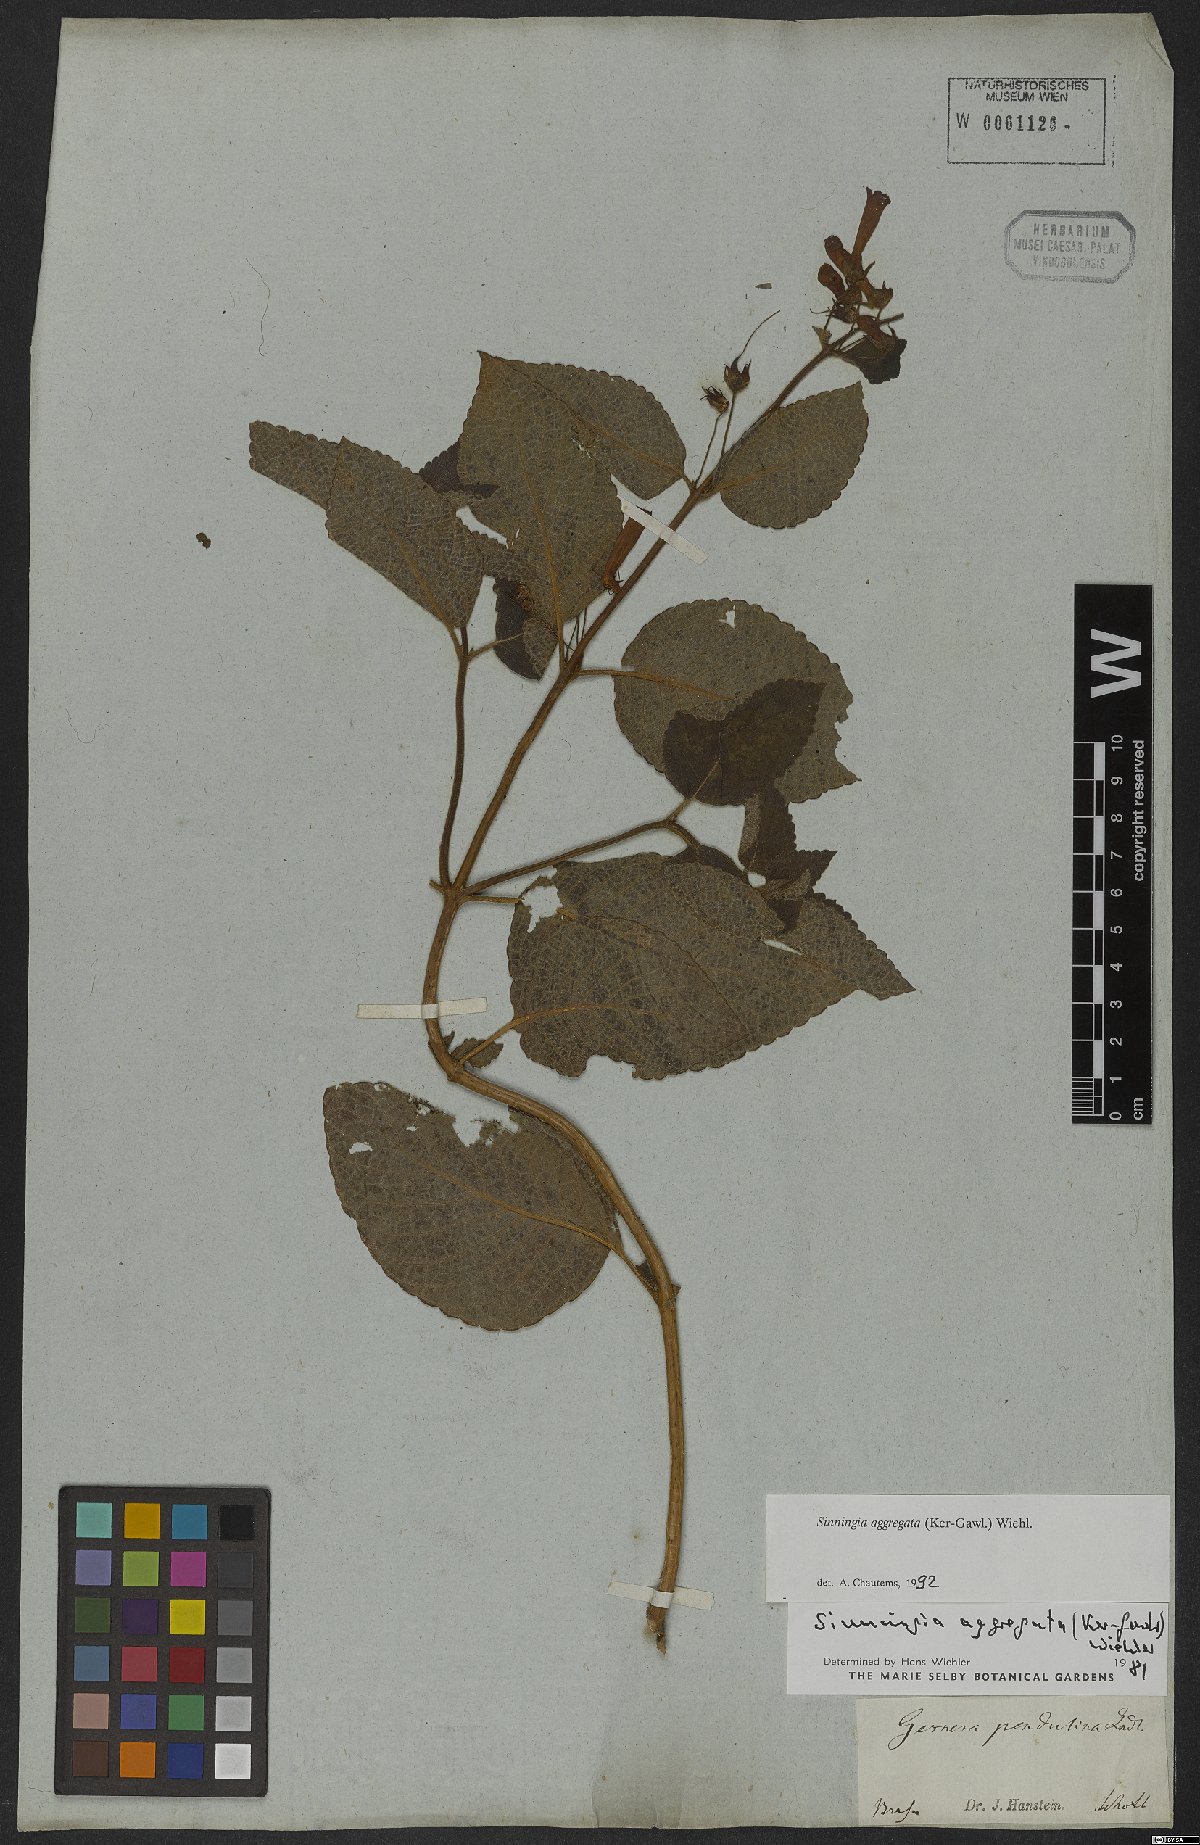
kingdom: Plantae
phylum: Tracheophyta
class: Magnoliopsida
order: Lamiales
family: Gesneriaceae
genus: Sinningia
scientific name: Sinningia aggregata
